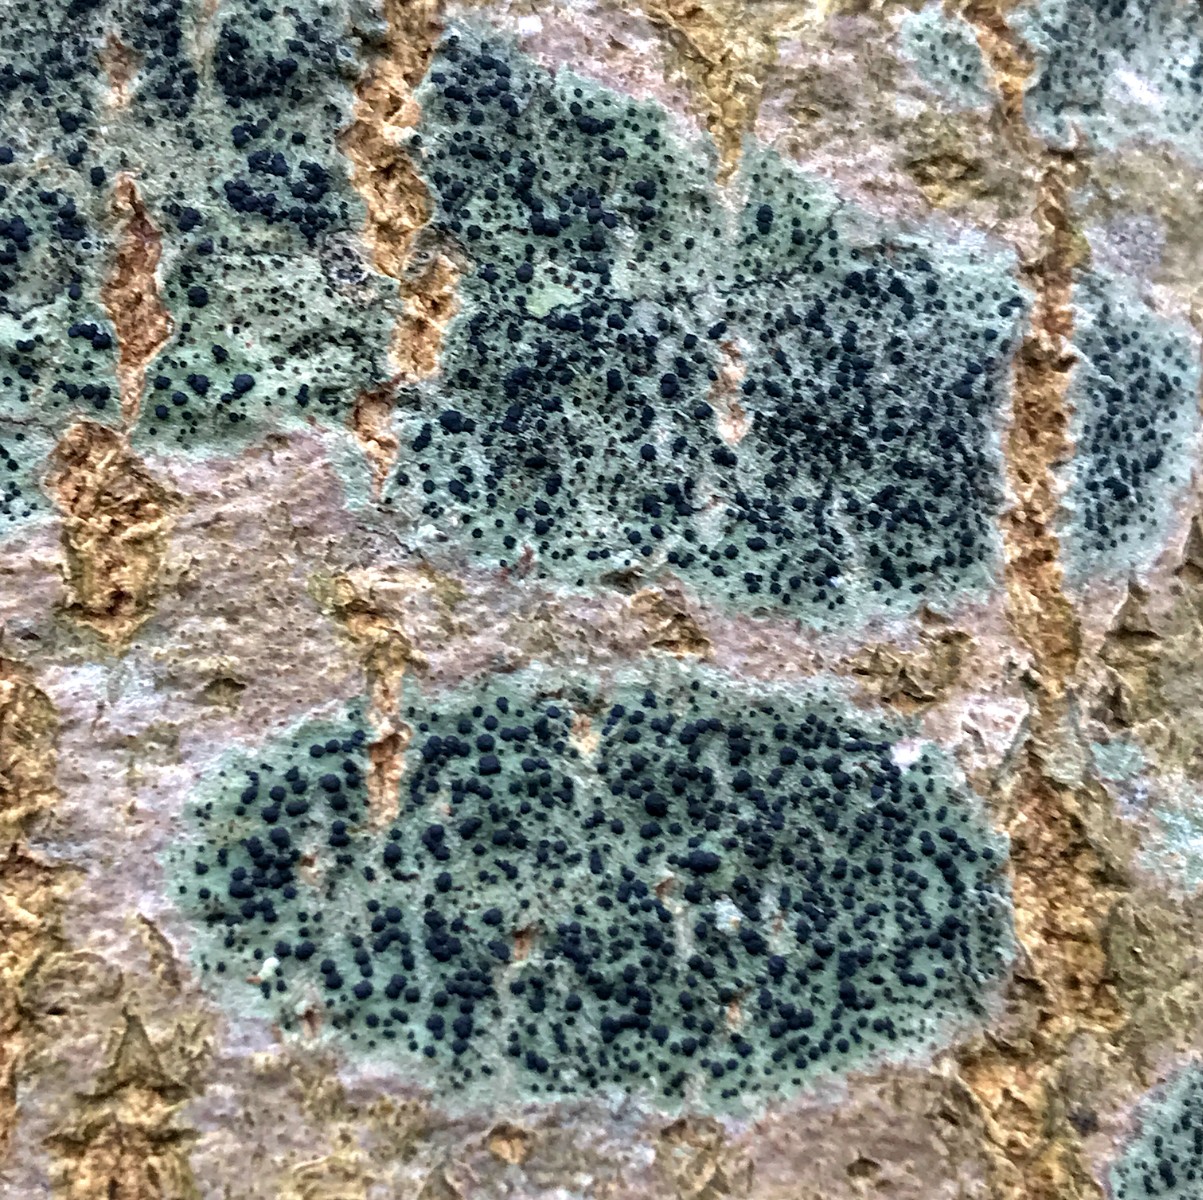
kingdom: Fungi
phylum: Ascomycota
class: Lecanoromycetes
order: Lecanorales
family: Lecanoraceae
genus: Lecidella
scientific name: Lecidella elaeochroma
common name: grågrøn skivelav
